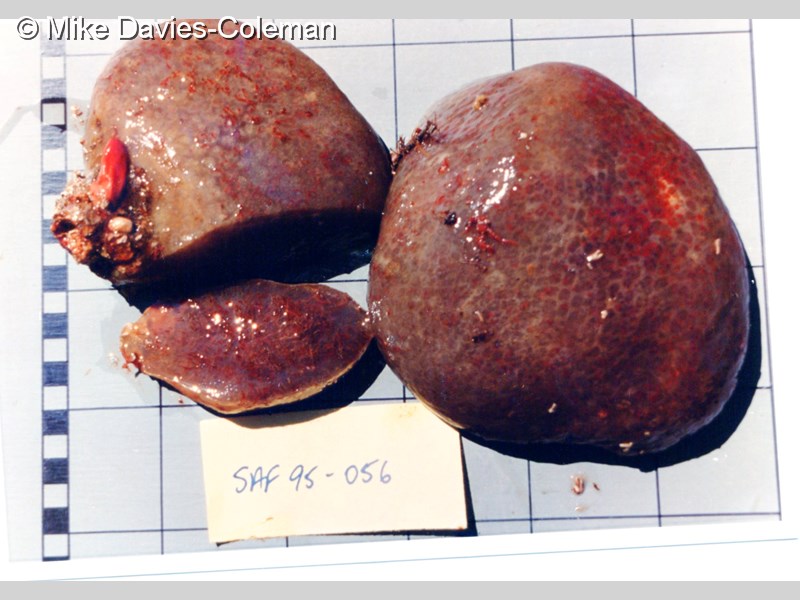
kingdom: Animalia
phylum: Chordata
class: Ascidiacea
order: Aplousobranchia
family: Polyclinidae
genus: Synoicum
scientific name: Synoicum
